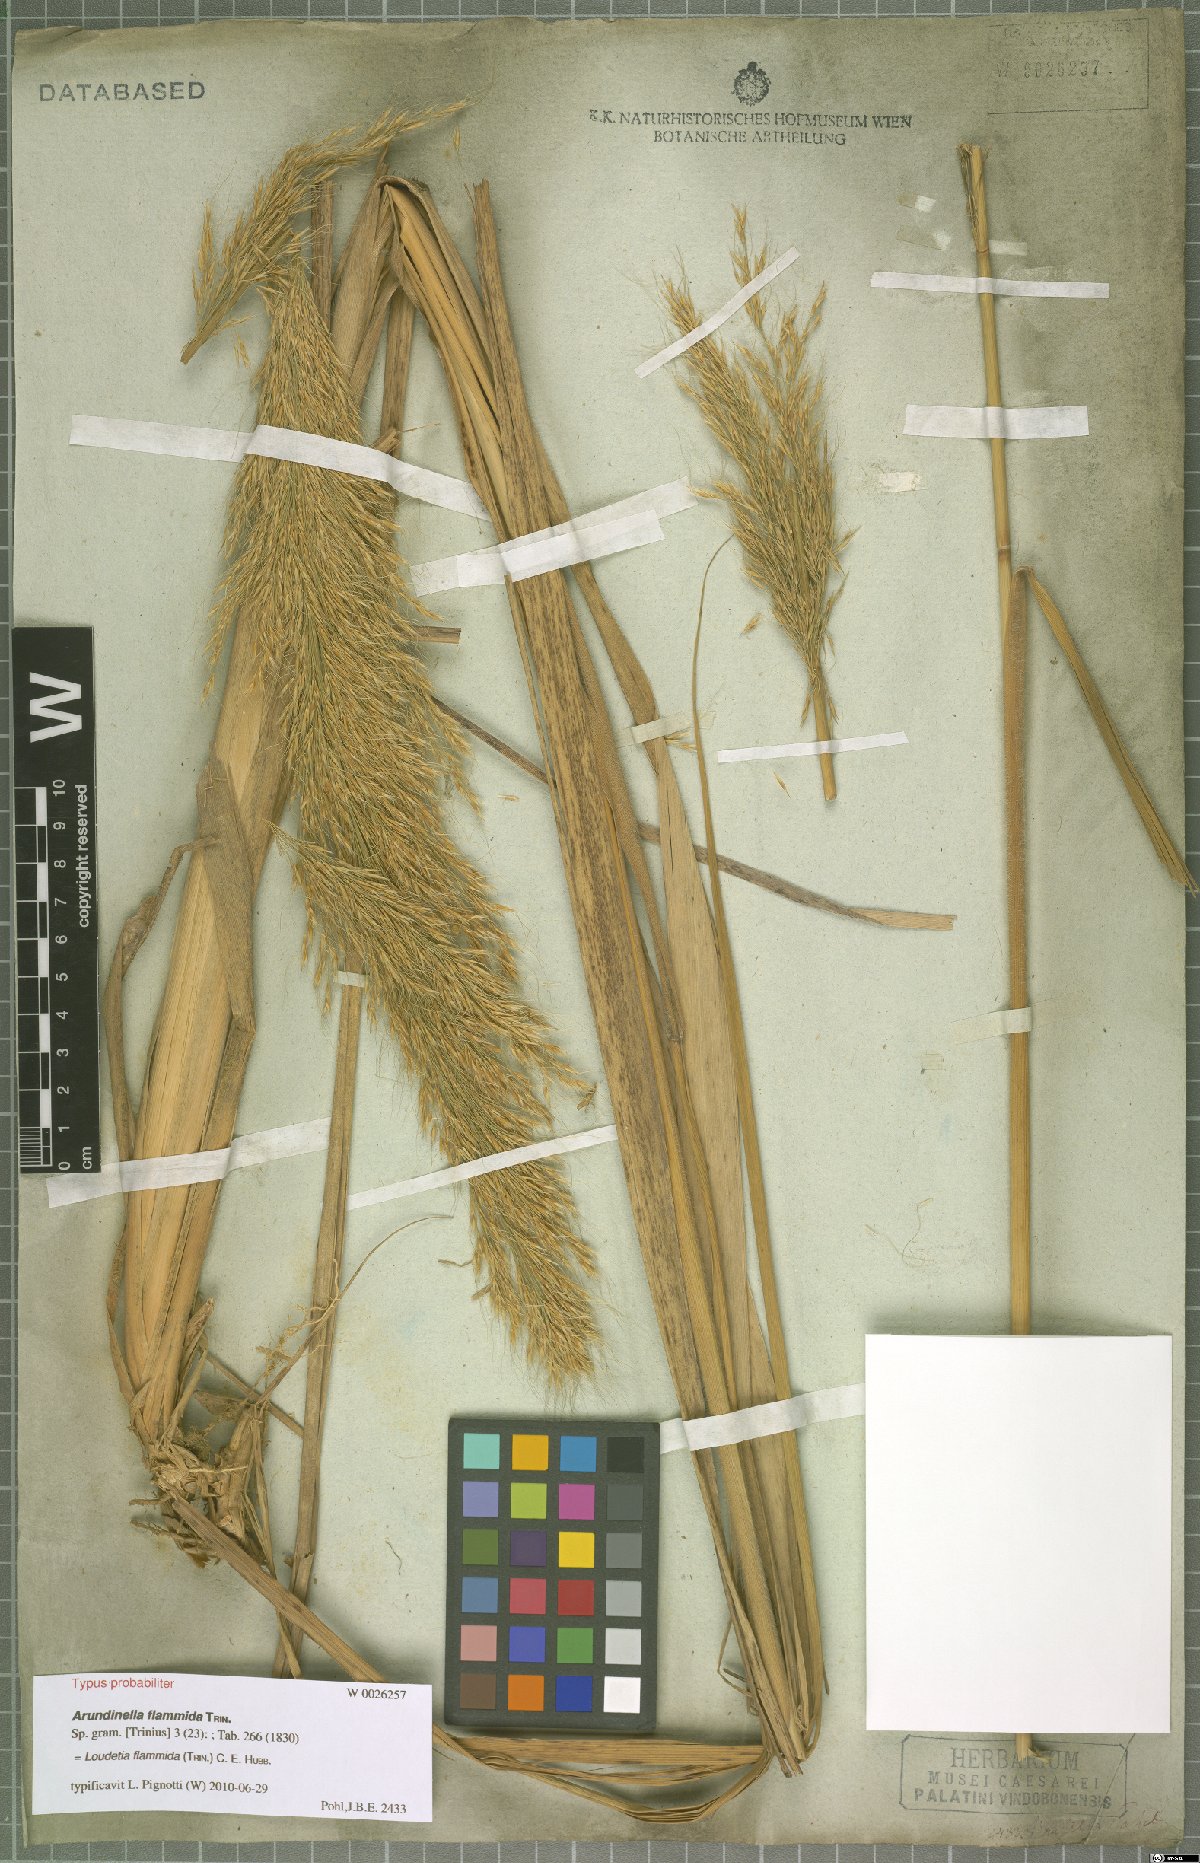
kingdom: Plantae
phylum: Tracheophyta
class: Liliopsida
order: Poales
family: Poaceae
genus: Loudetia
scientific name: Loudetia flammida
